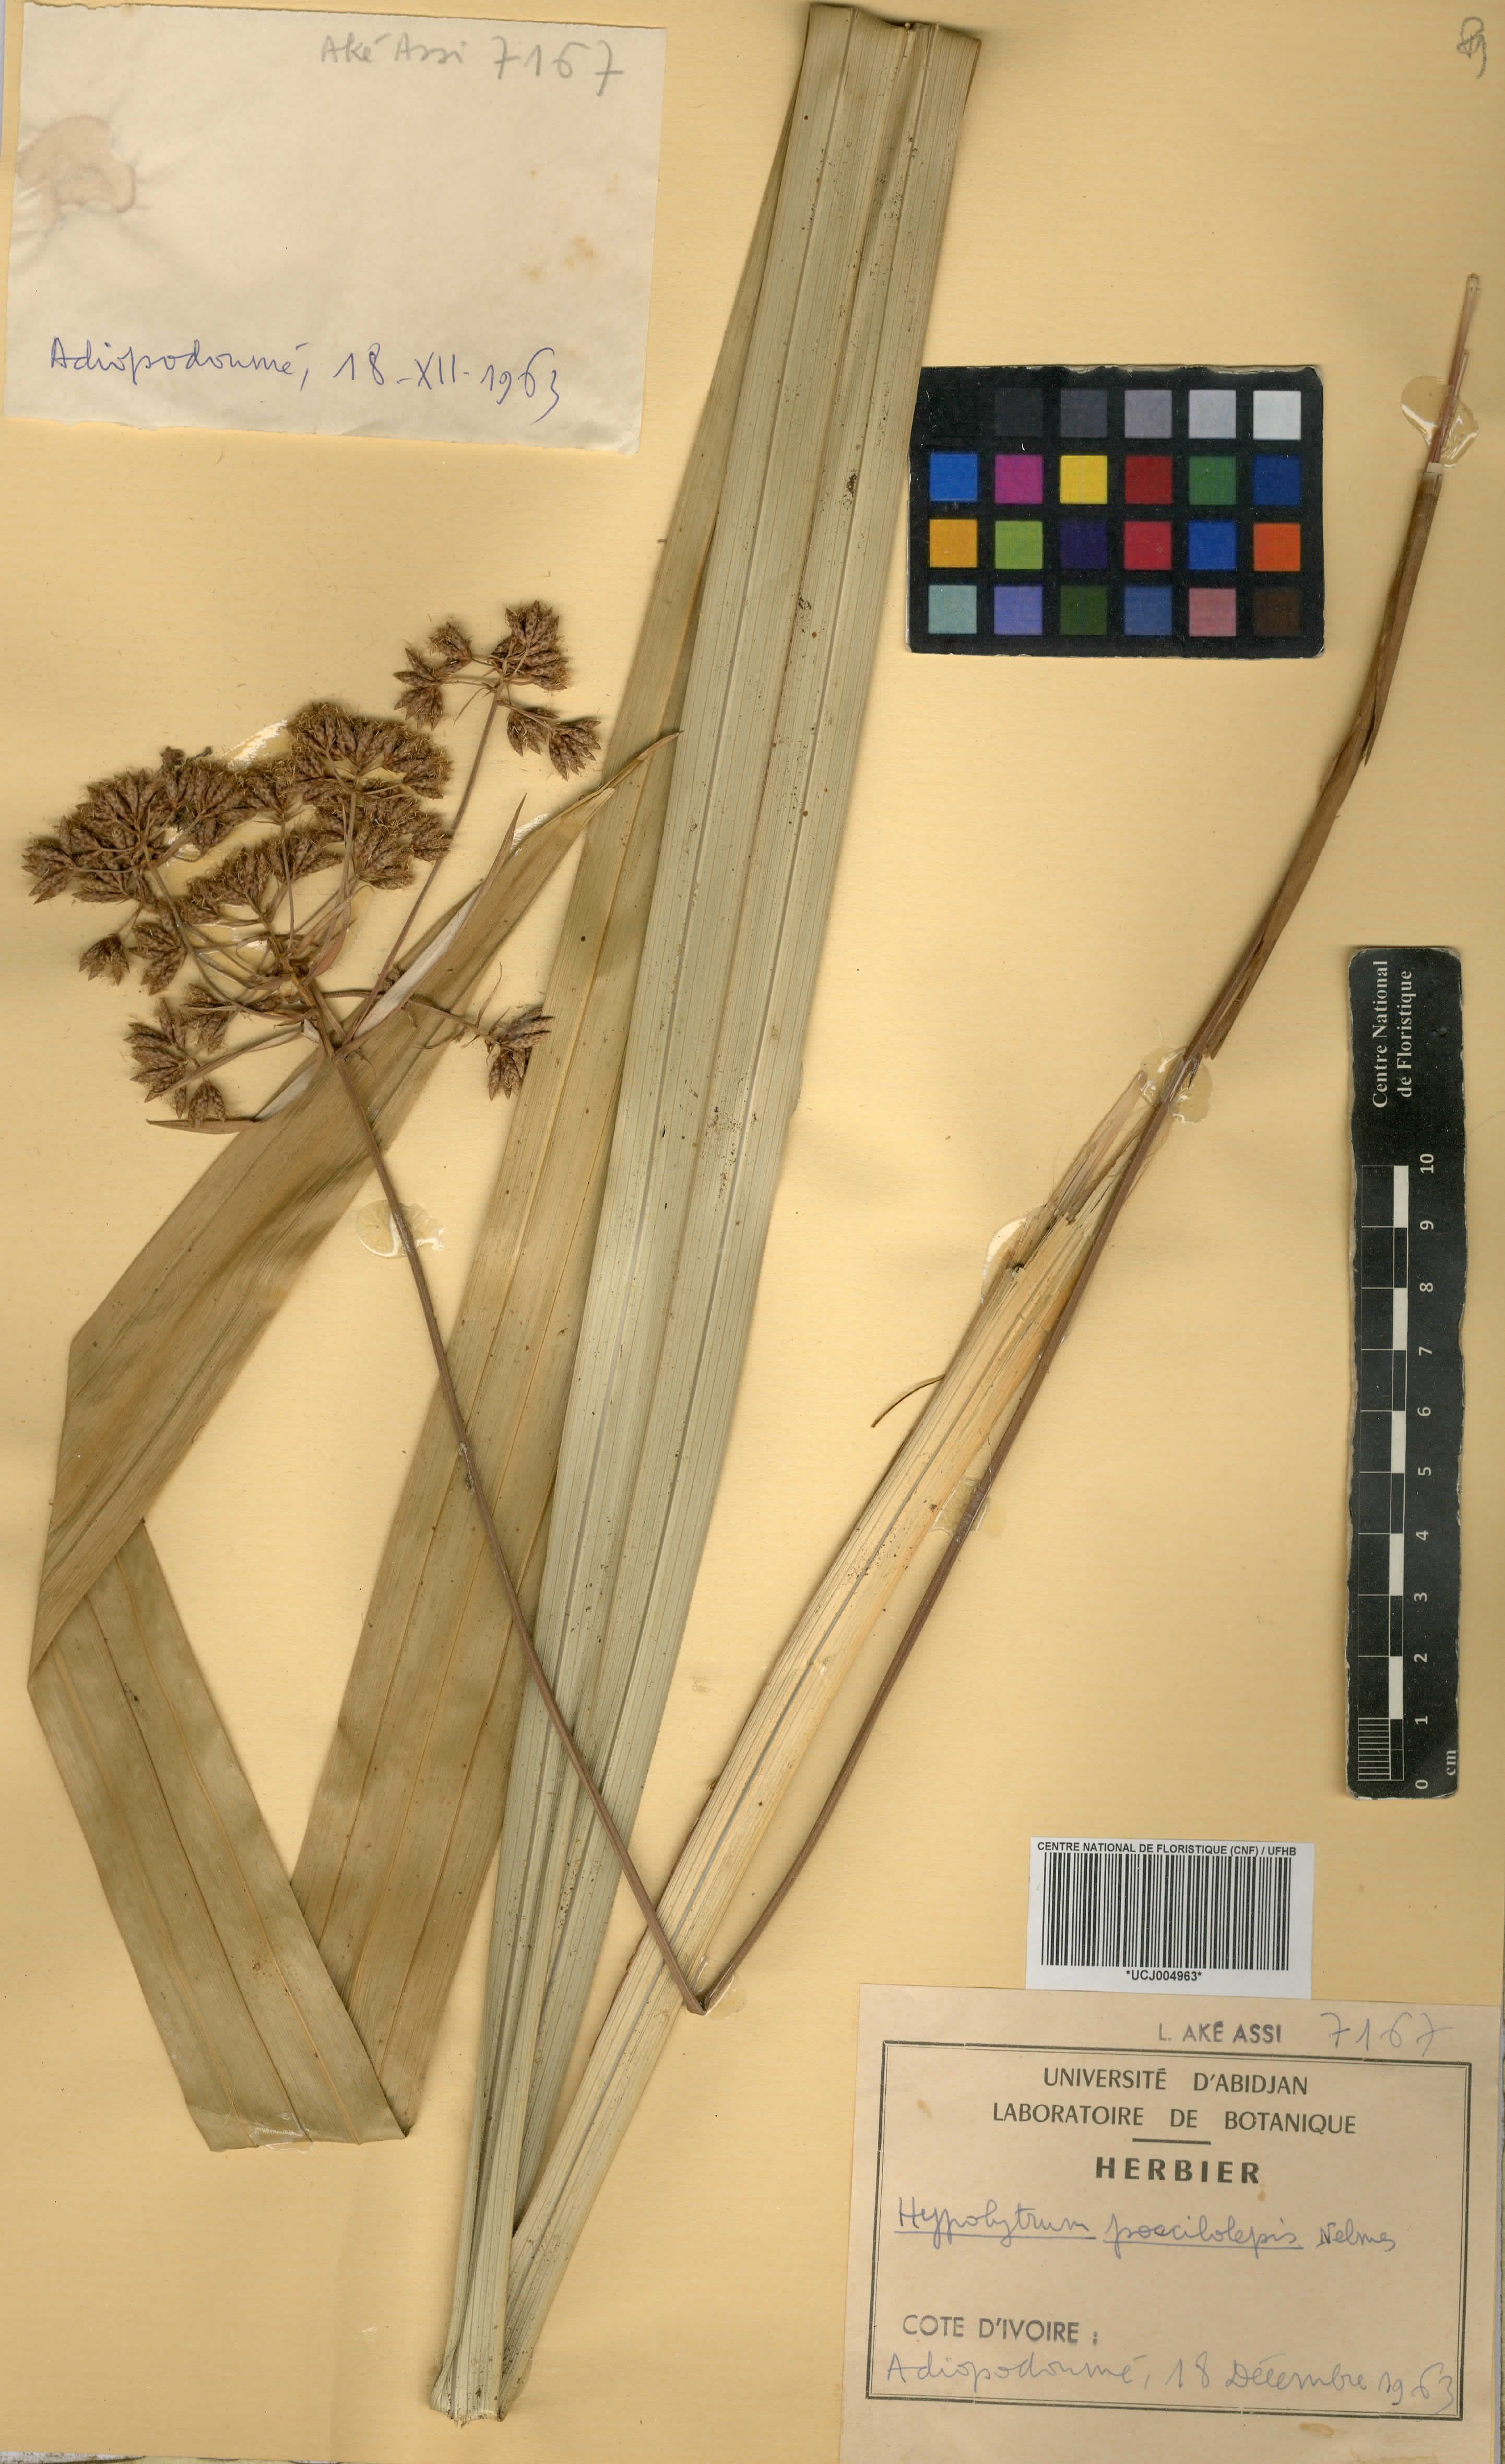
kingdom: Plantae
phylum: Tracheophyta
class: Liliopsida
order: Poales
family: Cyperaceae
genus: Hypolytrum
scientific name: Hypolytrum poecilolepis
